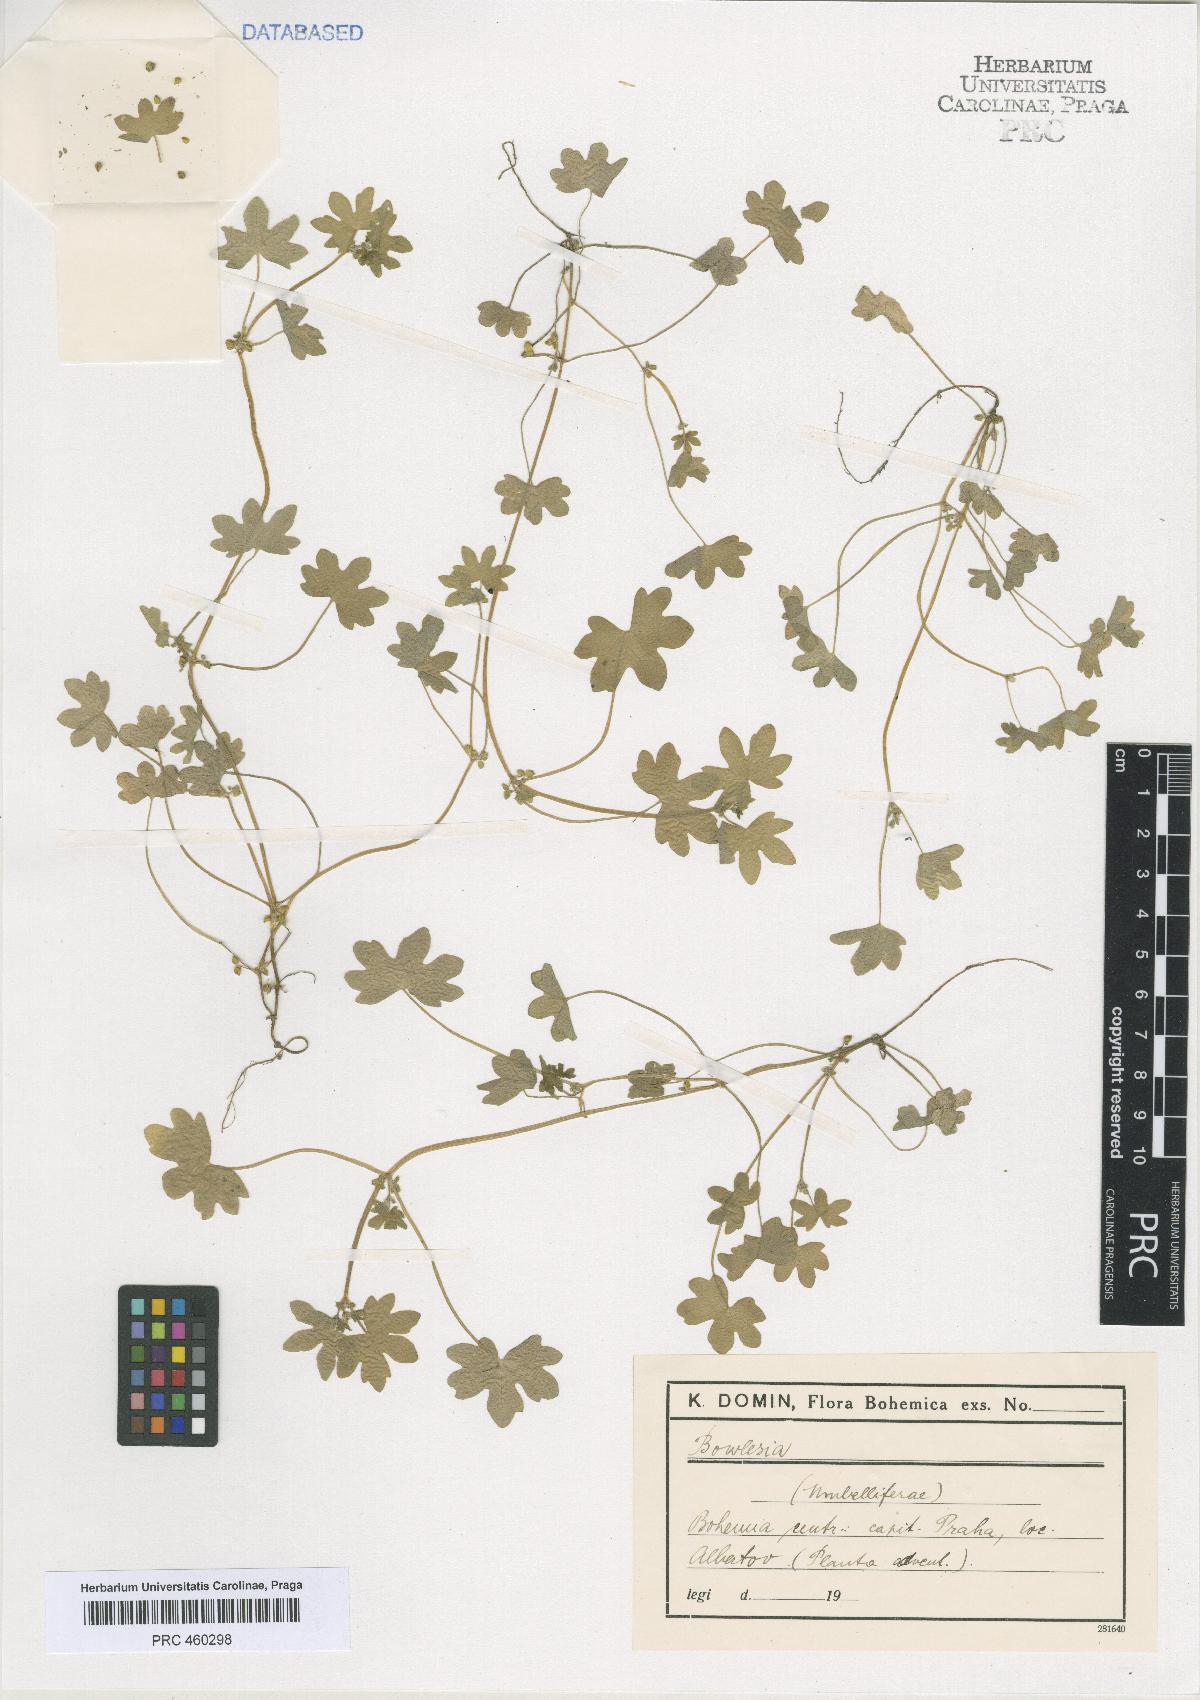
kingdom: Plantae
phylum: Tracheophyta
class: Magnoliopsida
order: Apiales
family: Apiaceae
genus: Bowlesia
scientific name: Bowlesia
